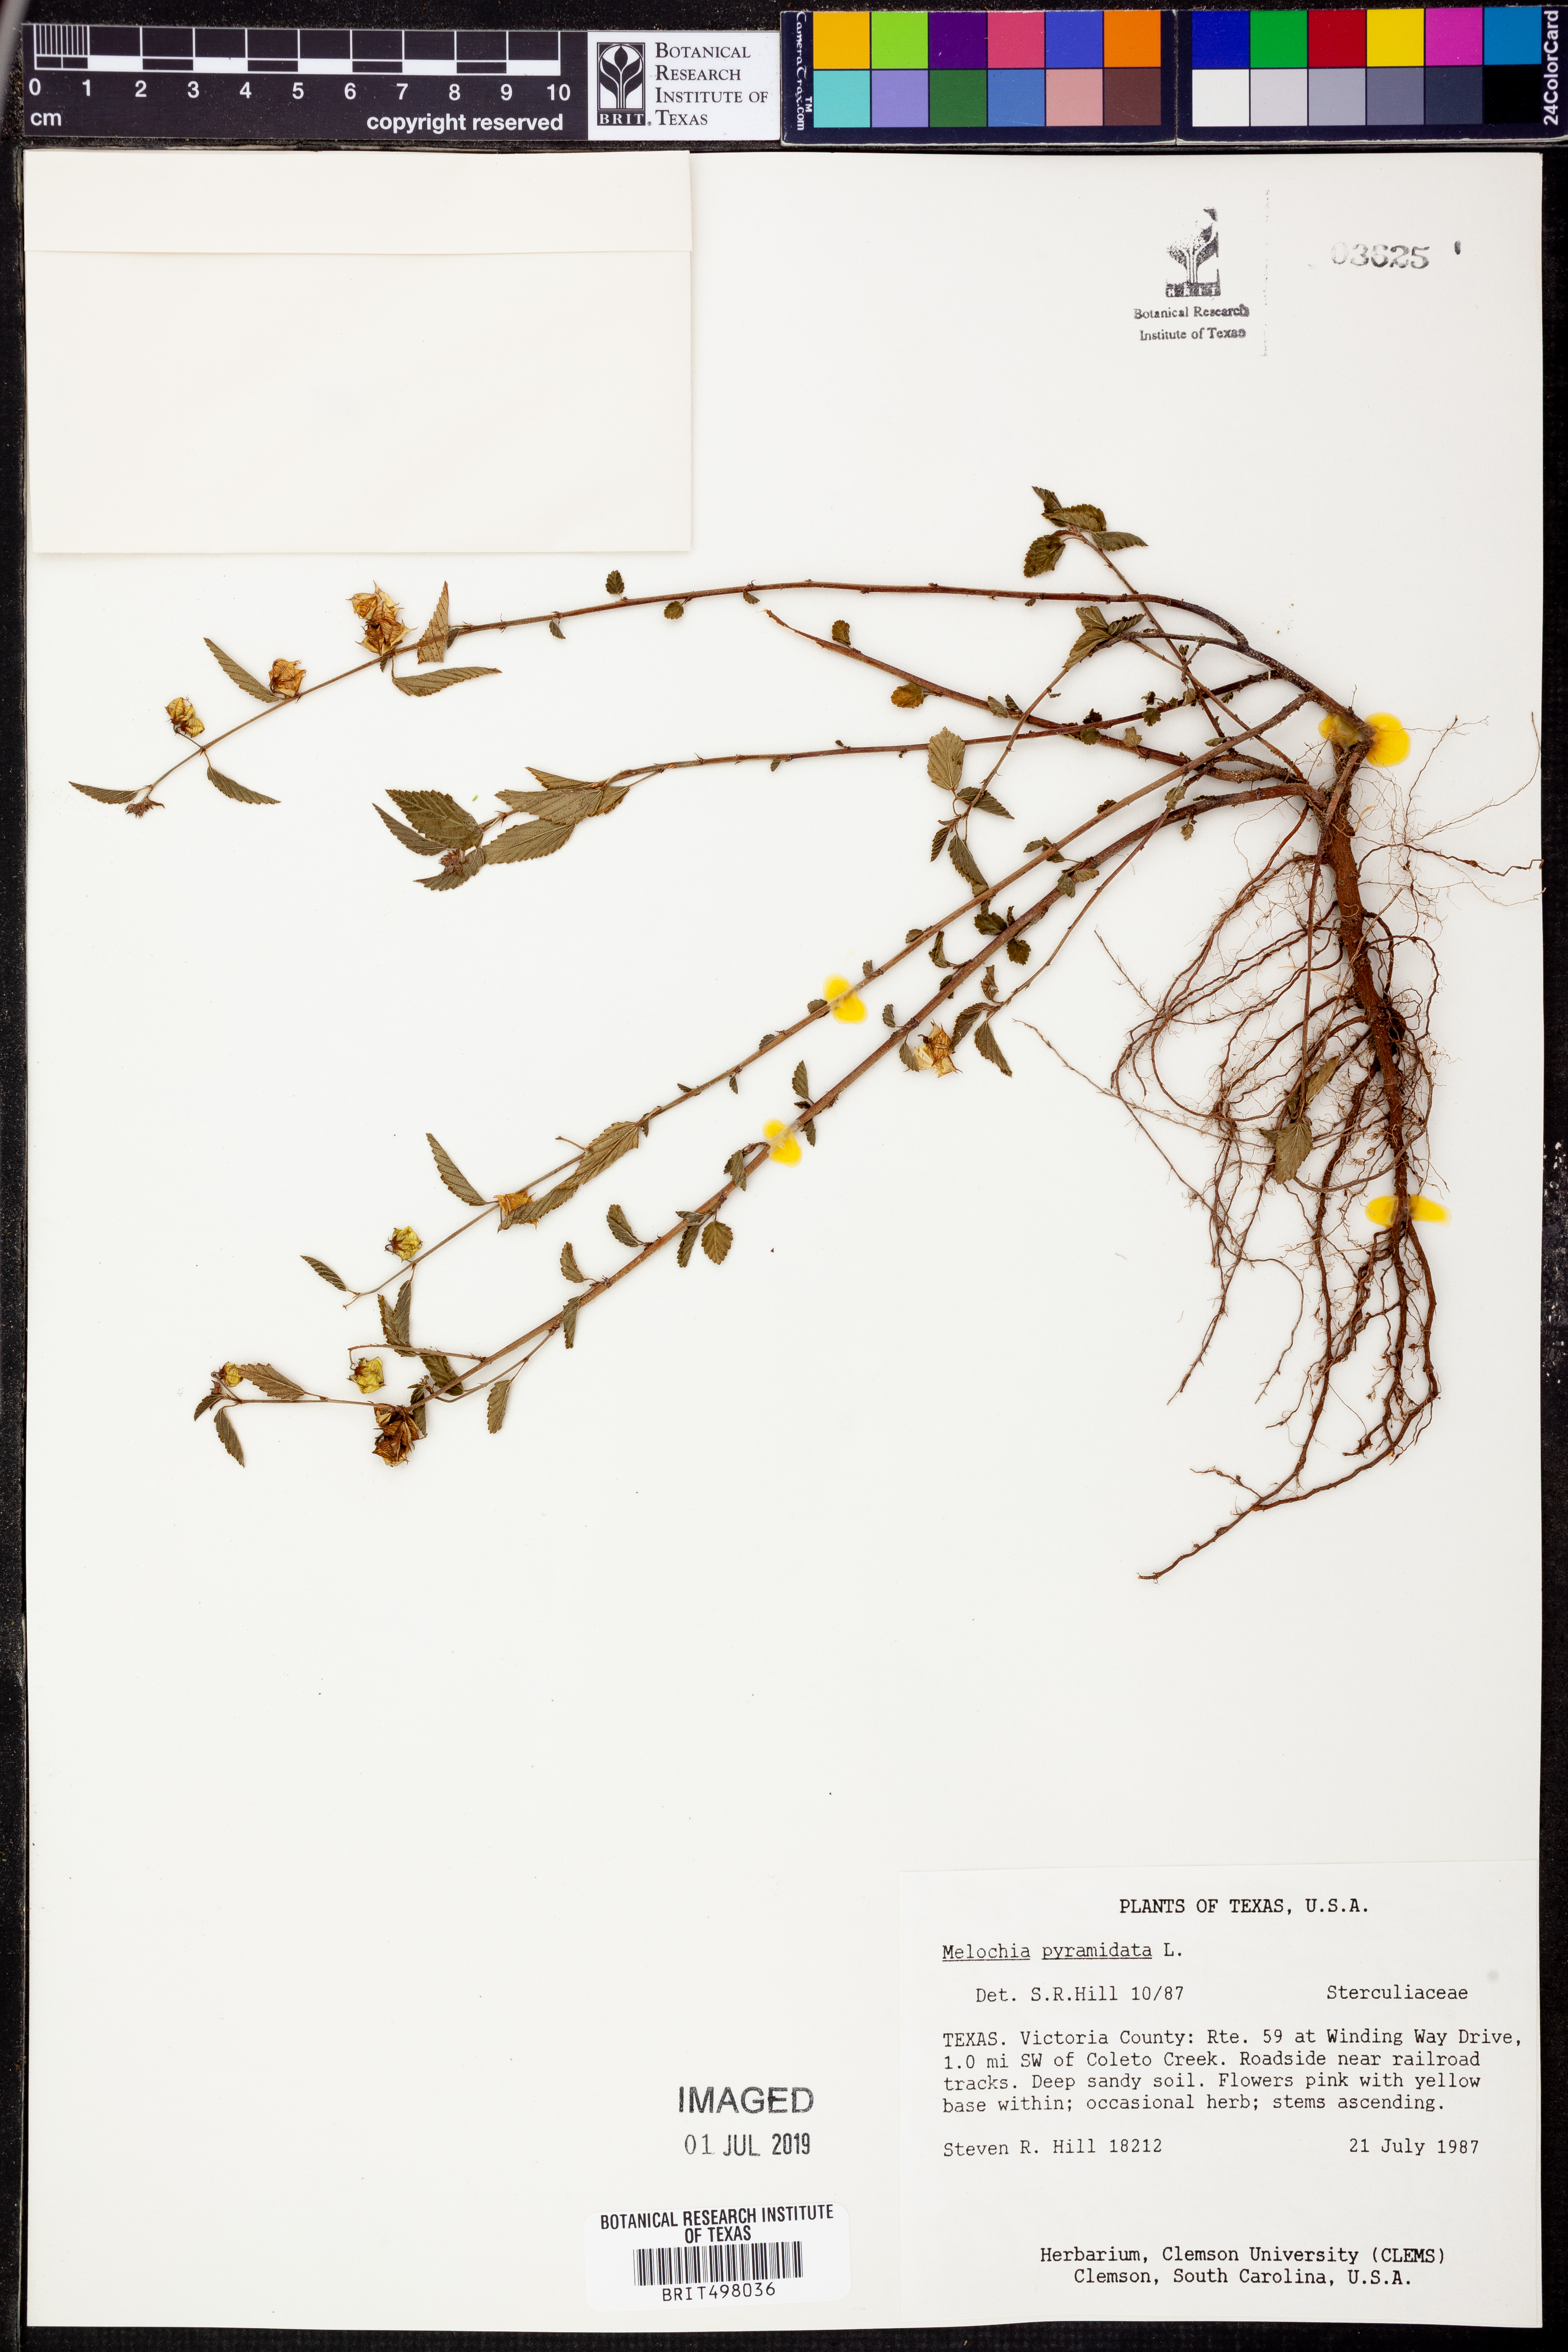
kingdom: Plantae
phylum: Tracheophyta
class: Magnoliopsida
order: Malvales
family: Malvaceae
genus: Melochia
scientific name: Melochia pyramidata
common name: Pyramidflower
